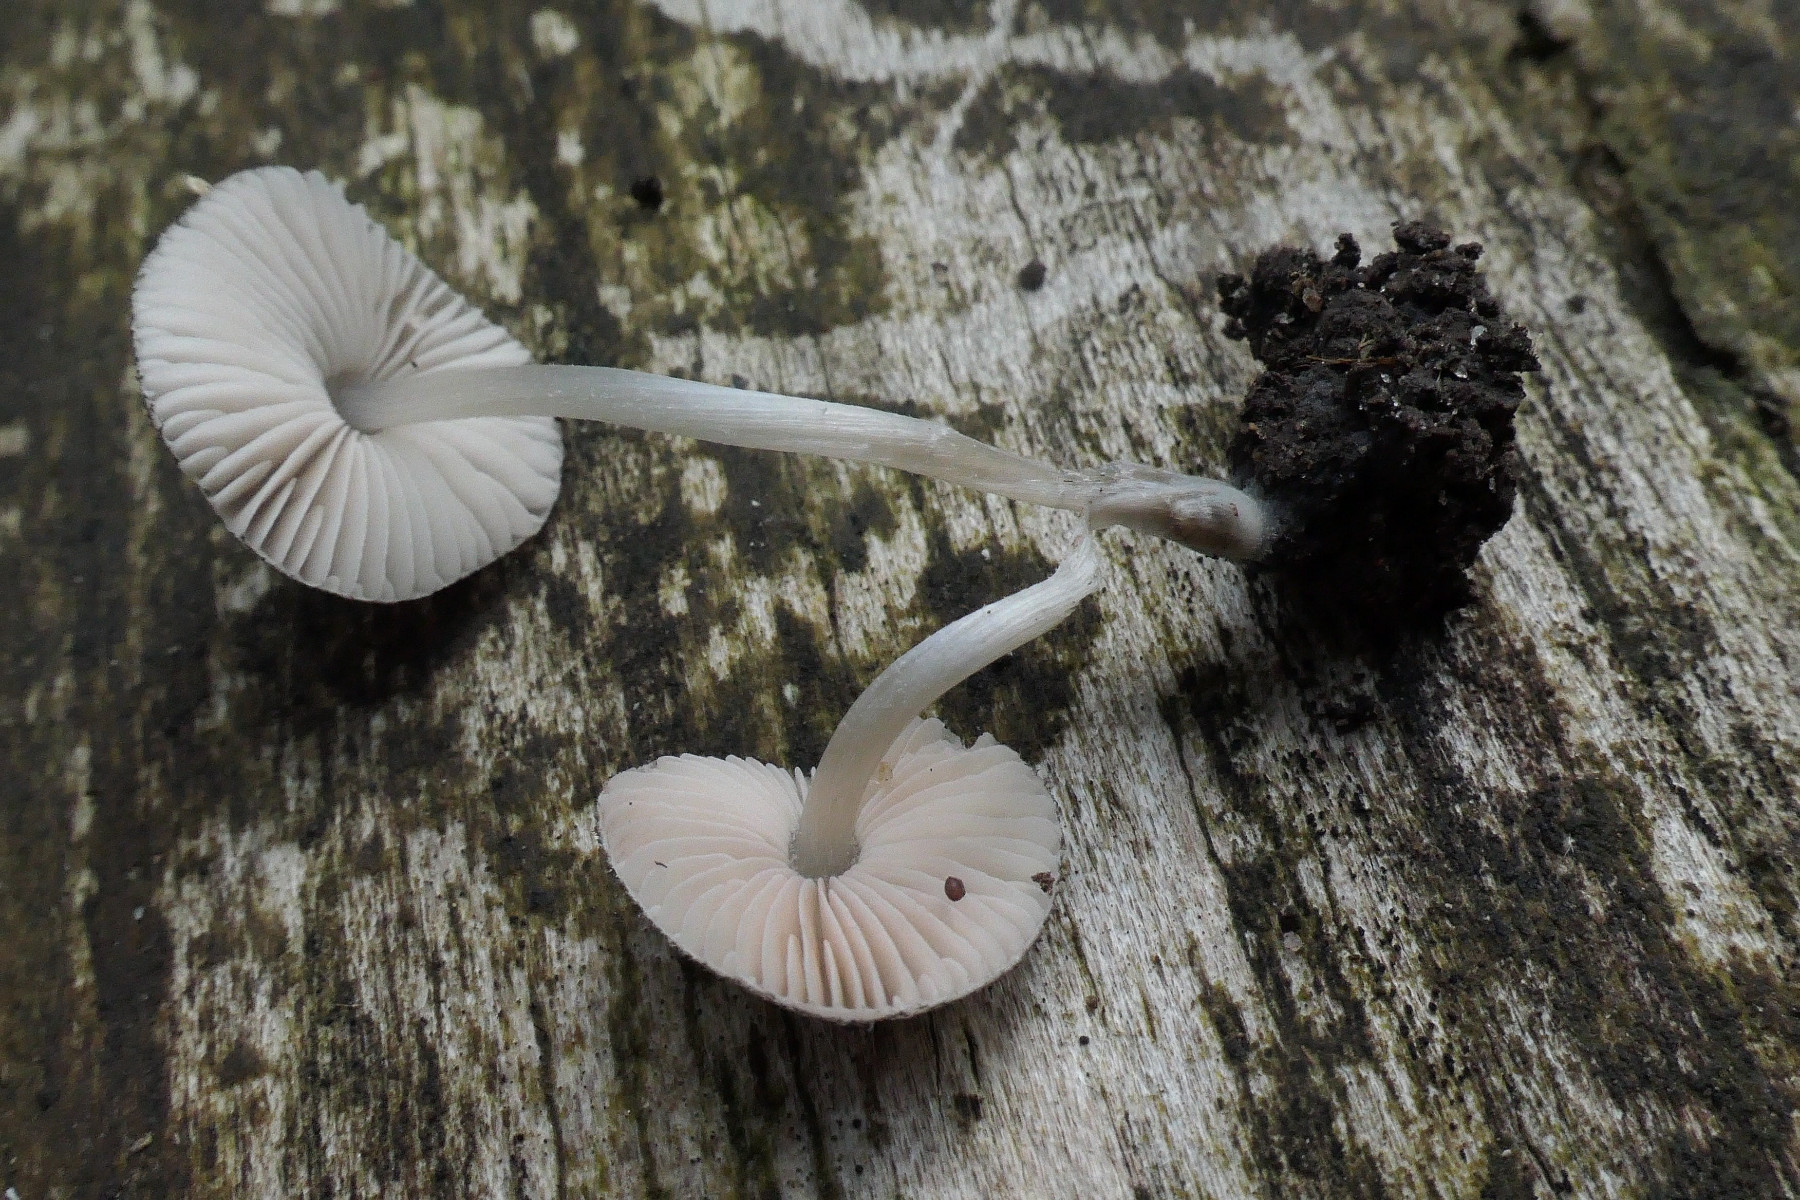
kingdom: Fungi
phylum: Basidiomycota
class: Agaricomycetes
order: Agaricales
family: Pluteaceae
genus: Pluteus
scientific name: Pluteus hispidulus
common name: Fleecy shield
